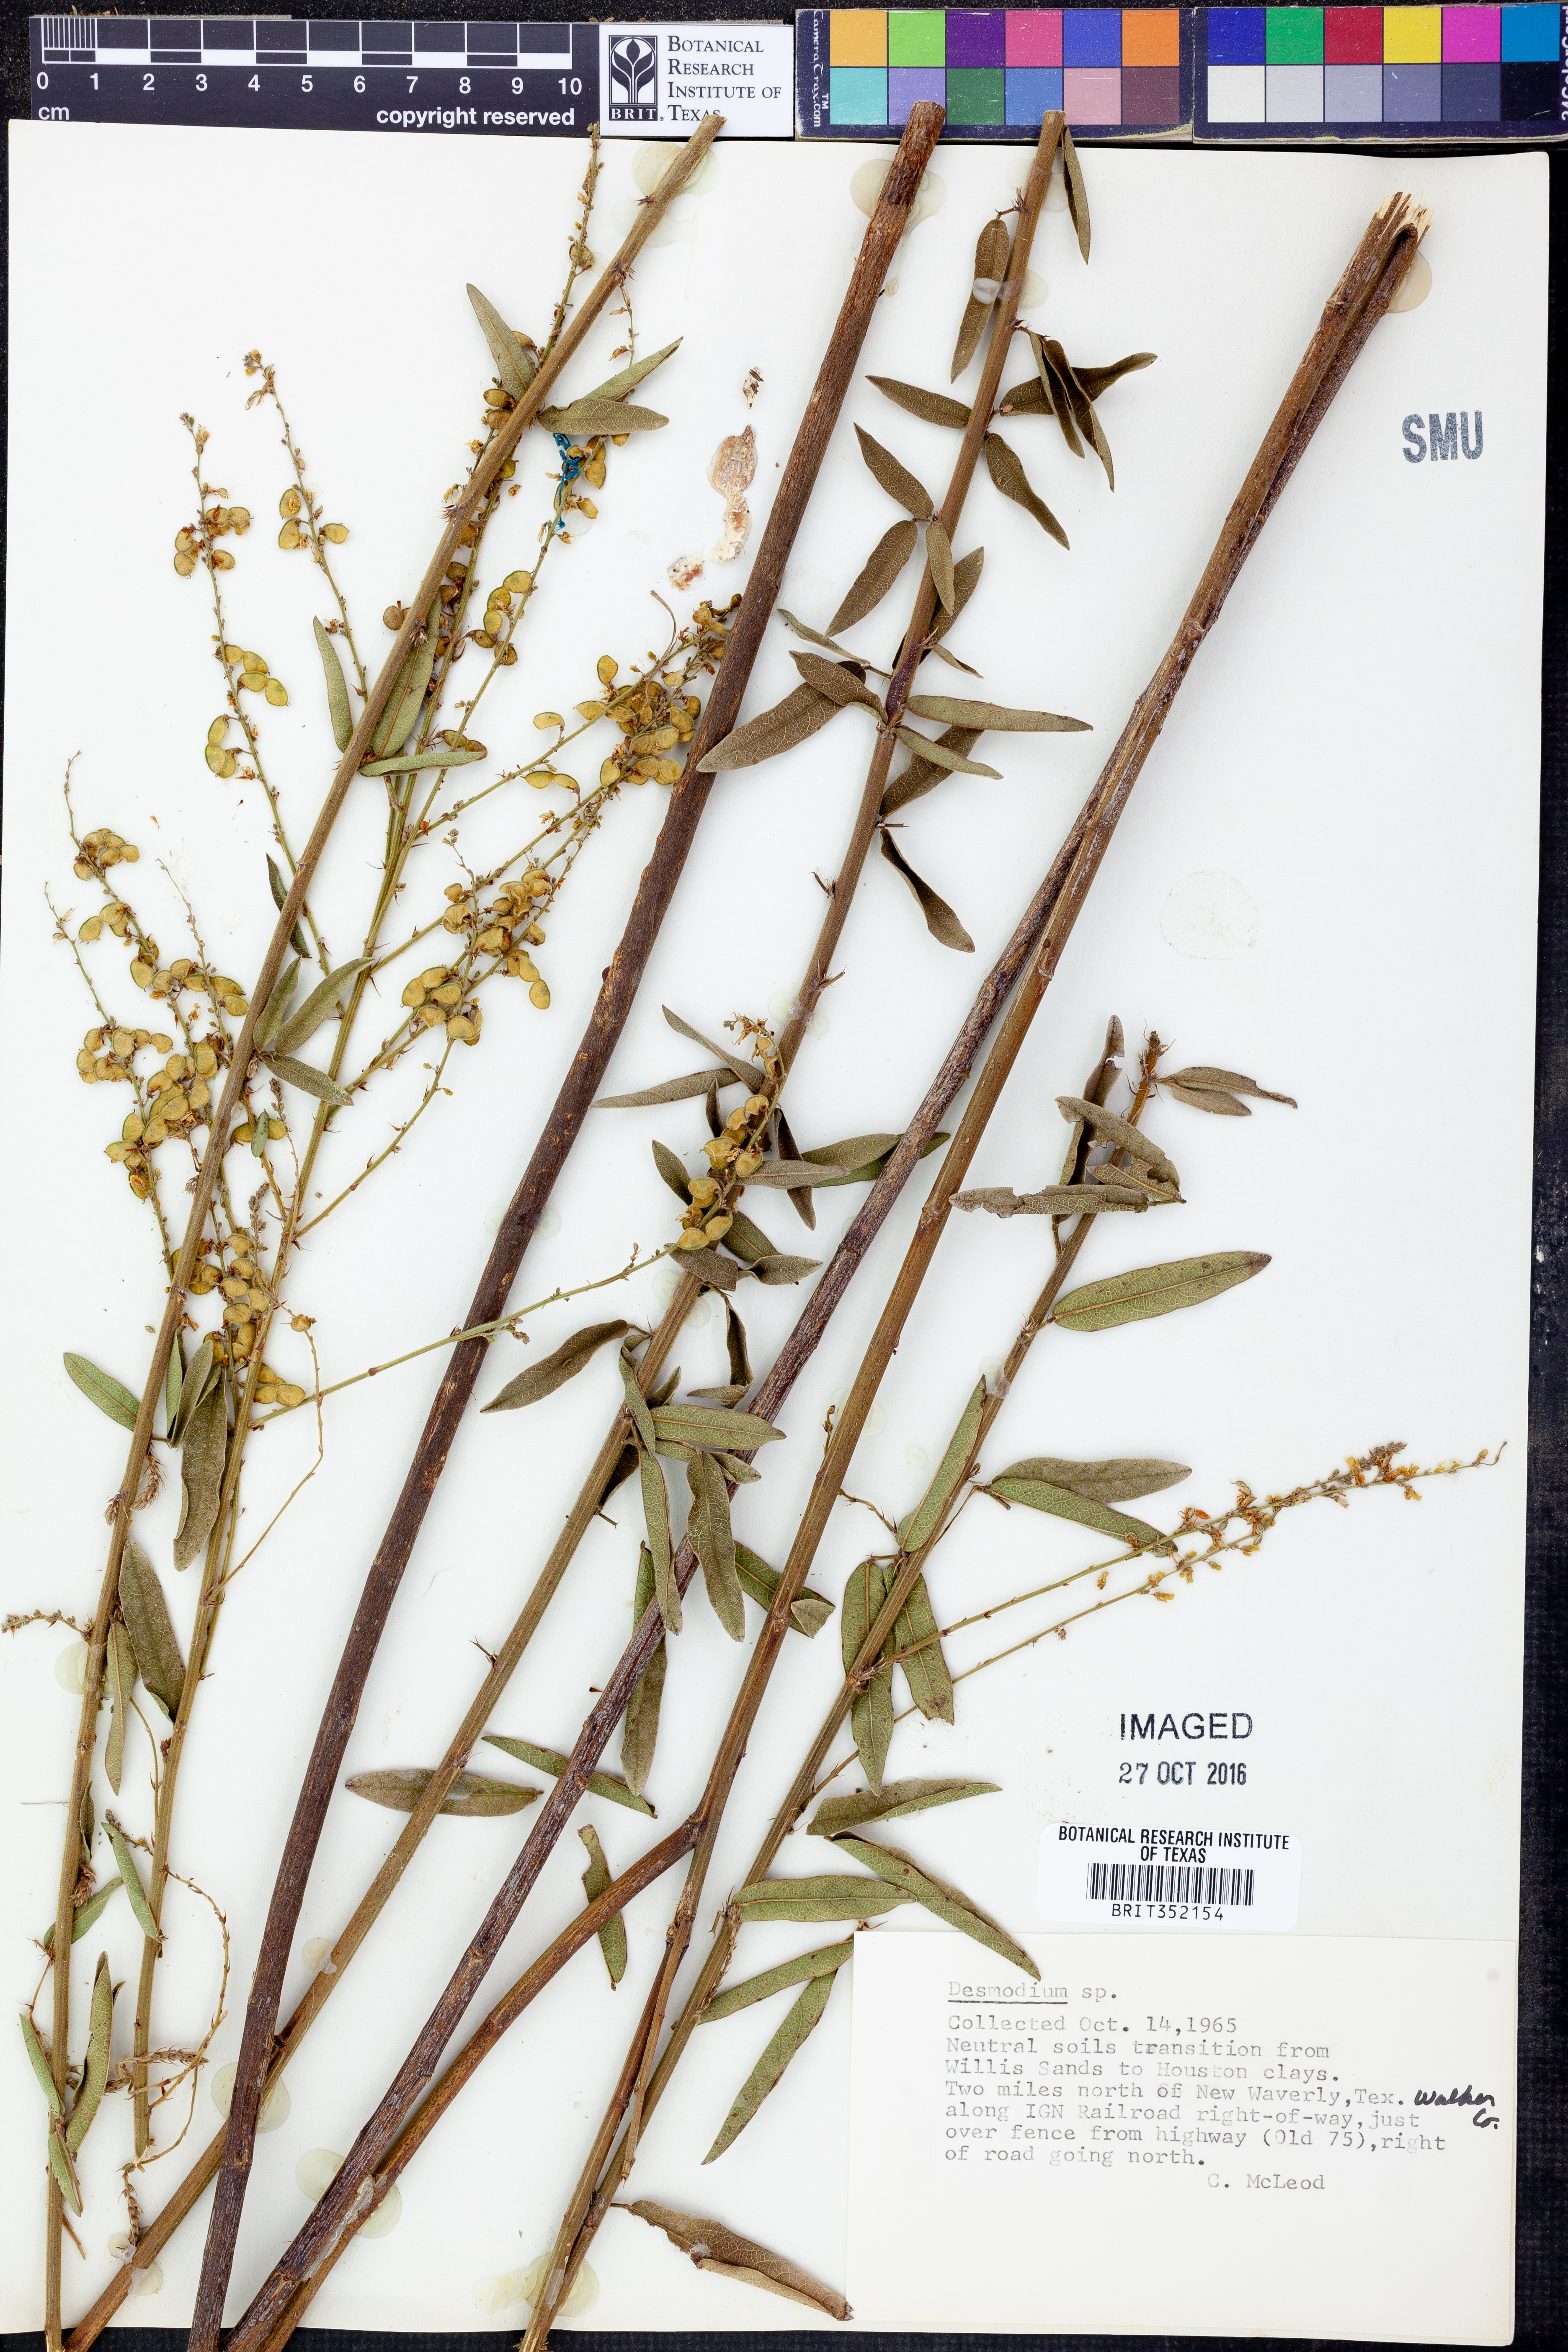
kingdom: Plantae
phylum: Tracheophyta
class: Magnoliopsida
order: Fabales
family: Fabaceae
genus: Desmodium
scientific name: Desmodium
